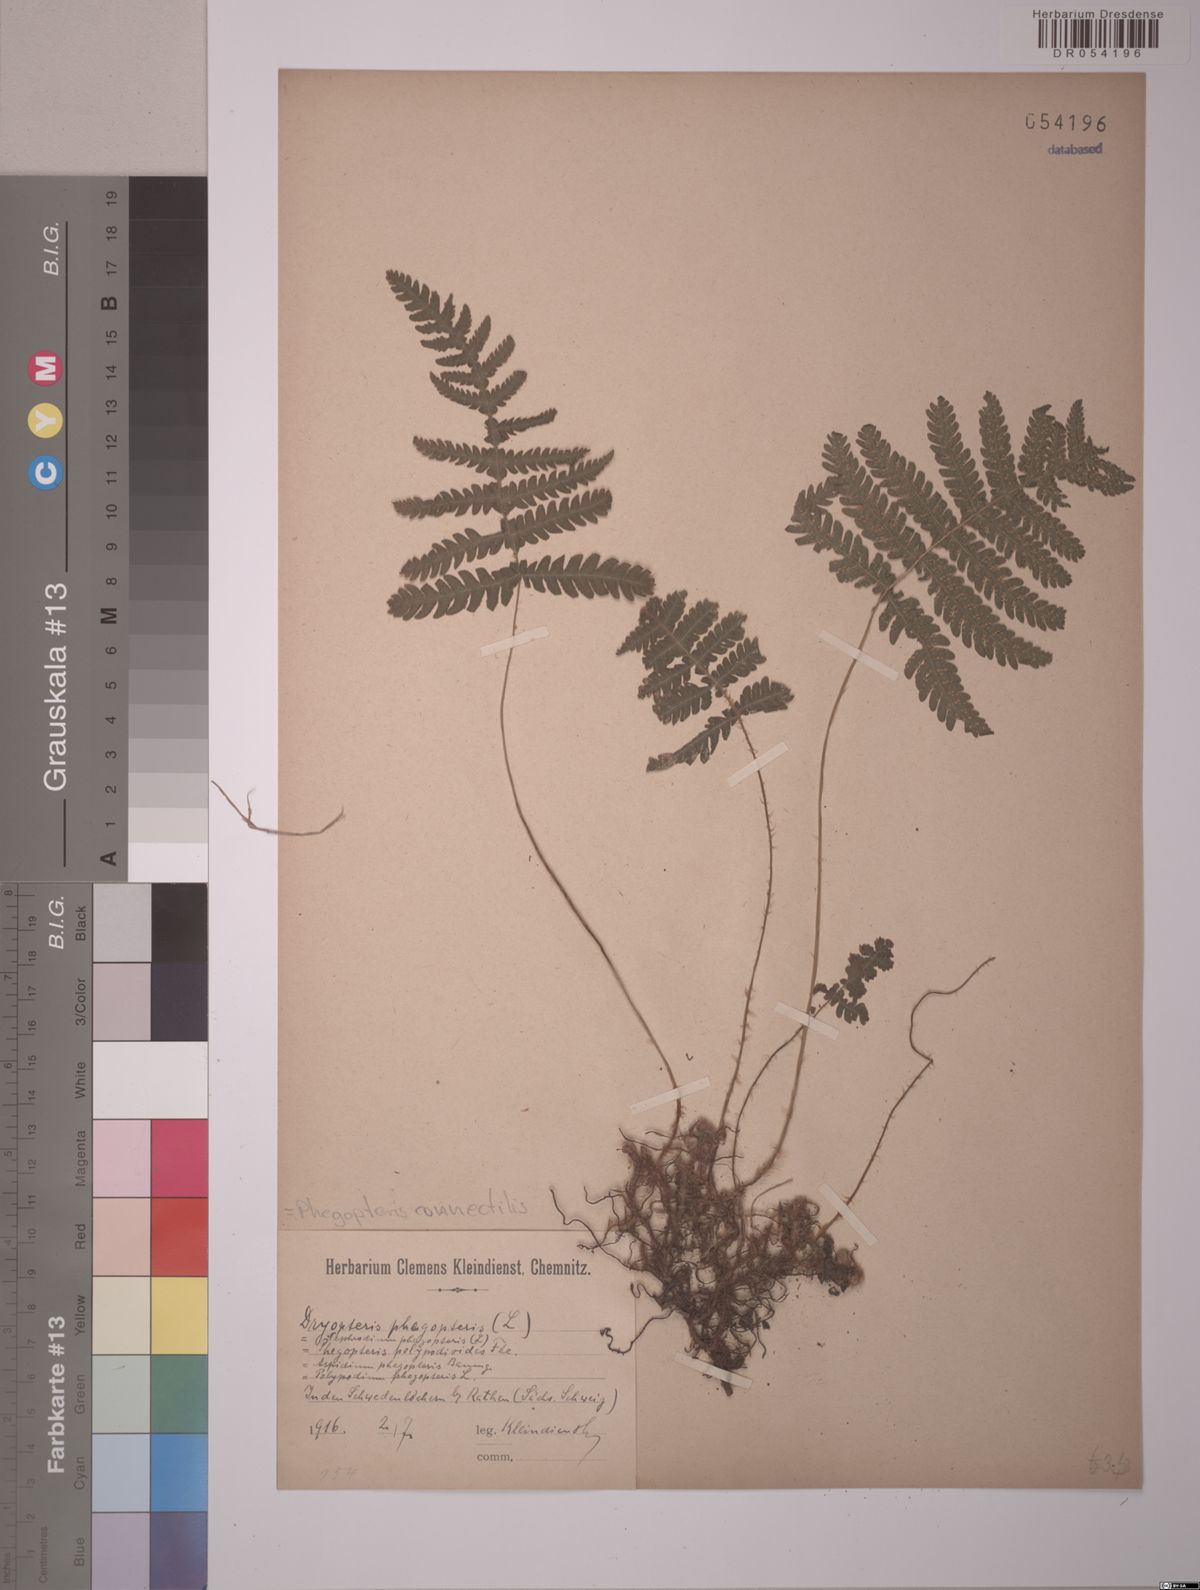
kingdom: Plantae
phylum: Tracheophyta
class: Polypodiopsida
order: Polypodiales
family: Thelypteridaceae
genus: Phegopteris
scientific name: Phegopteris connectilis
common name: Beech fern
